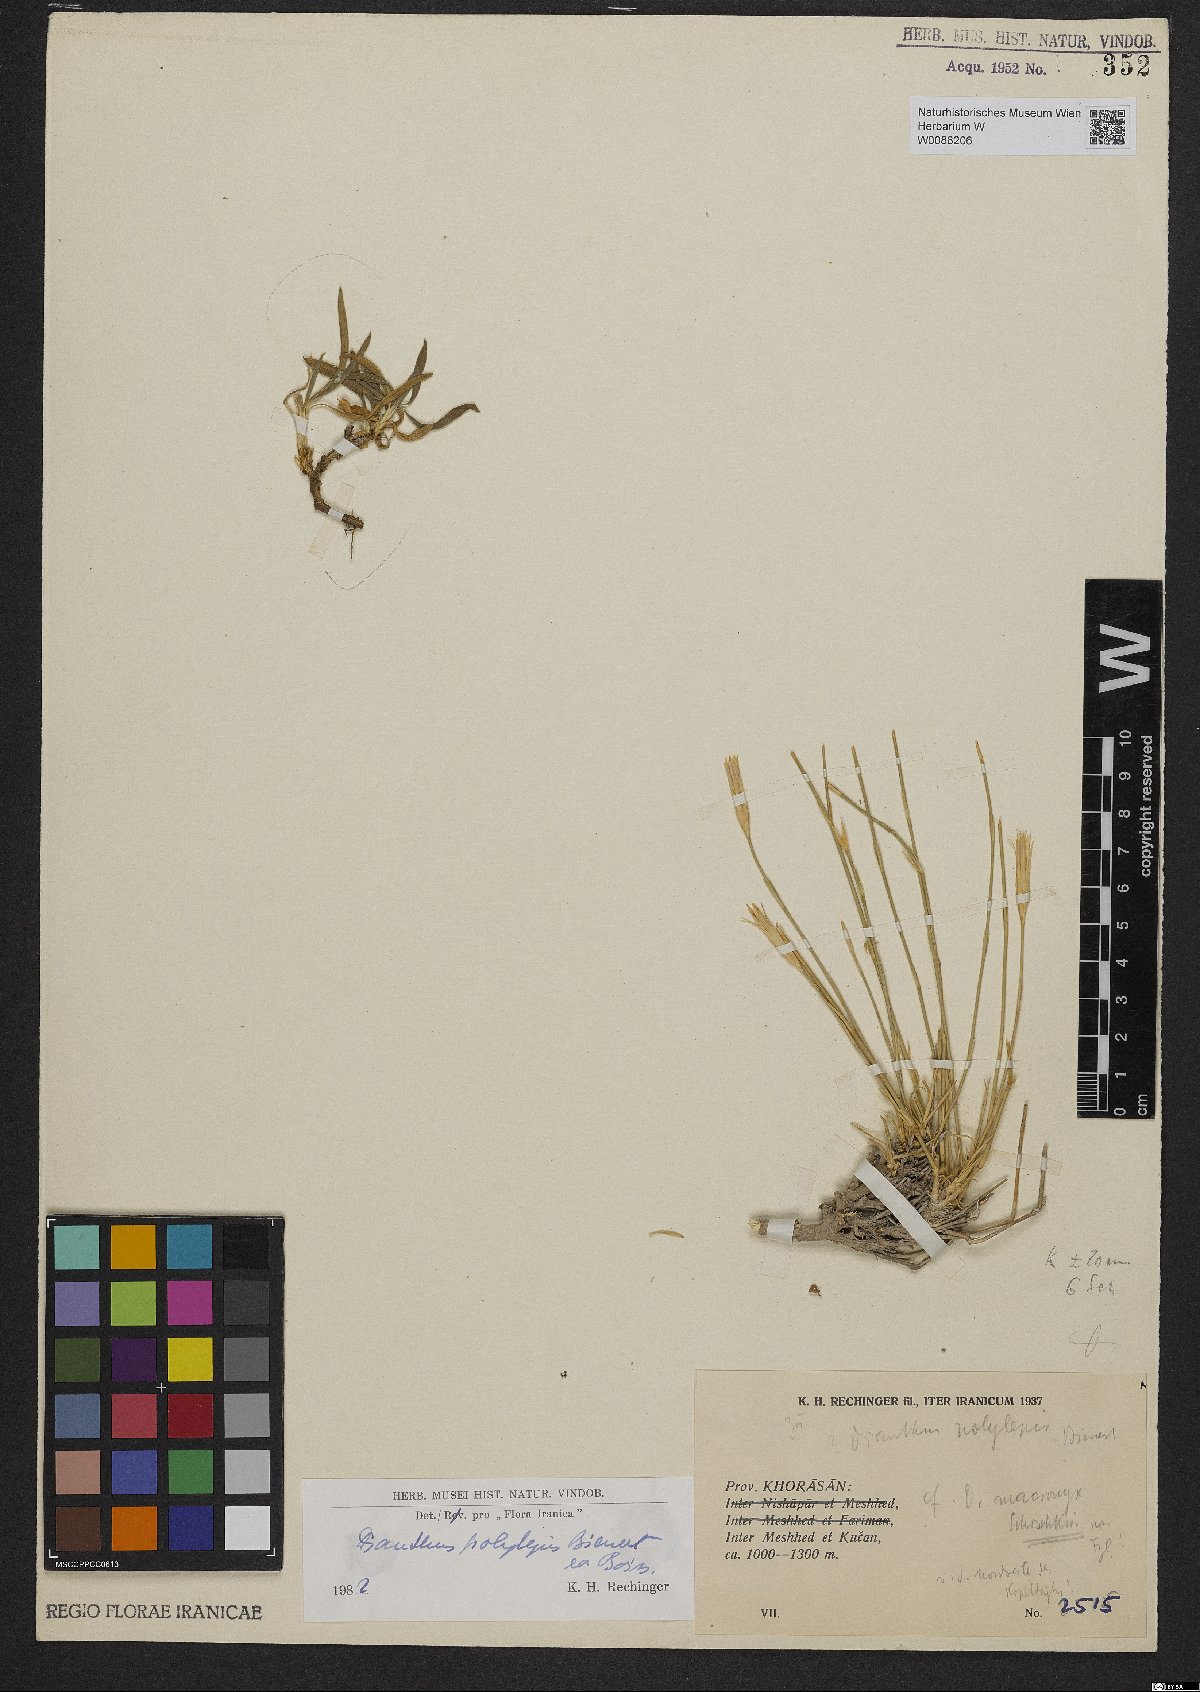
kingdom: Plantae
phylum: Tracheophyta
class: Magnoliopsida
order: Caryophyllales
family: Caryophyllaceae
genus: Dianthus
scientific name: Dianthus polylepis
